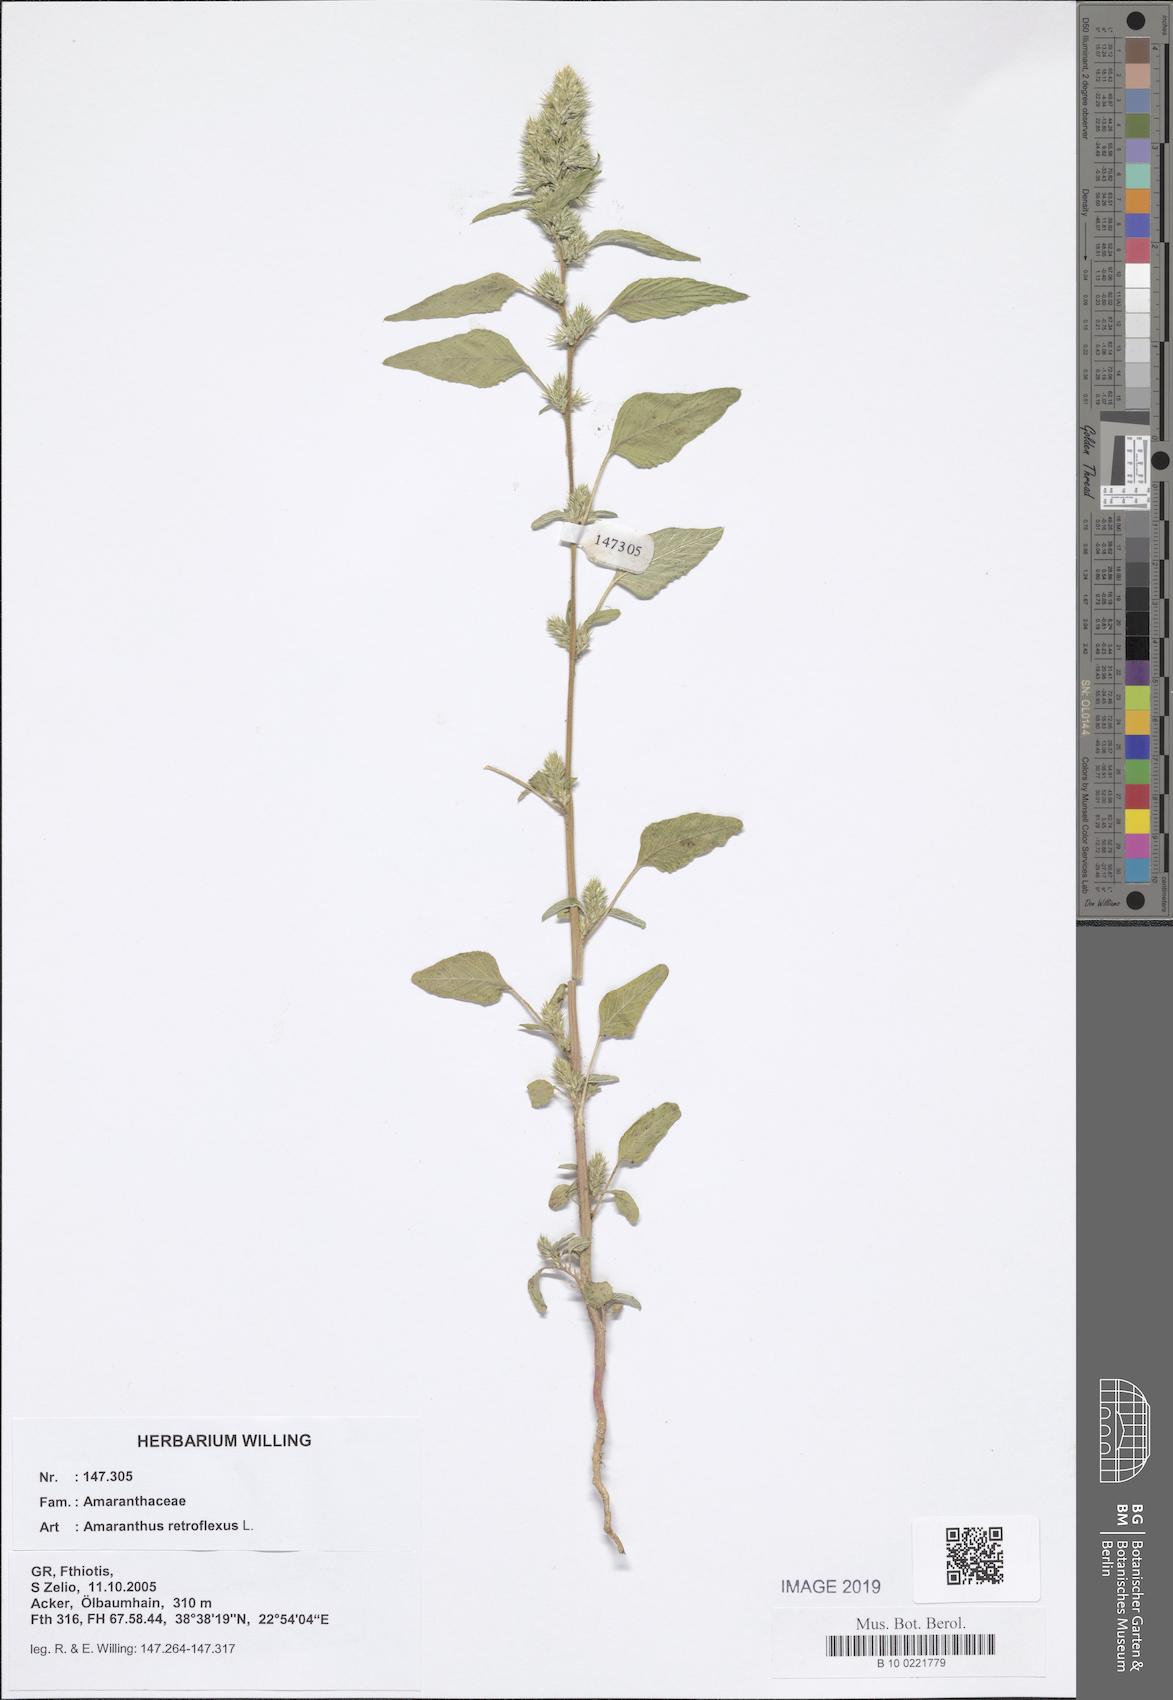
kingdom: Plantae
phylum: Tracheophyta
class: Magnoliopsida
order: Caryophyllales
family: Amaranthaceae
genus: Amaranthus
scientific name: Amaranthus retroflexus
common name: Redroot amaranth
